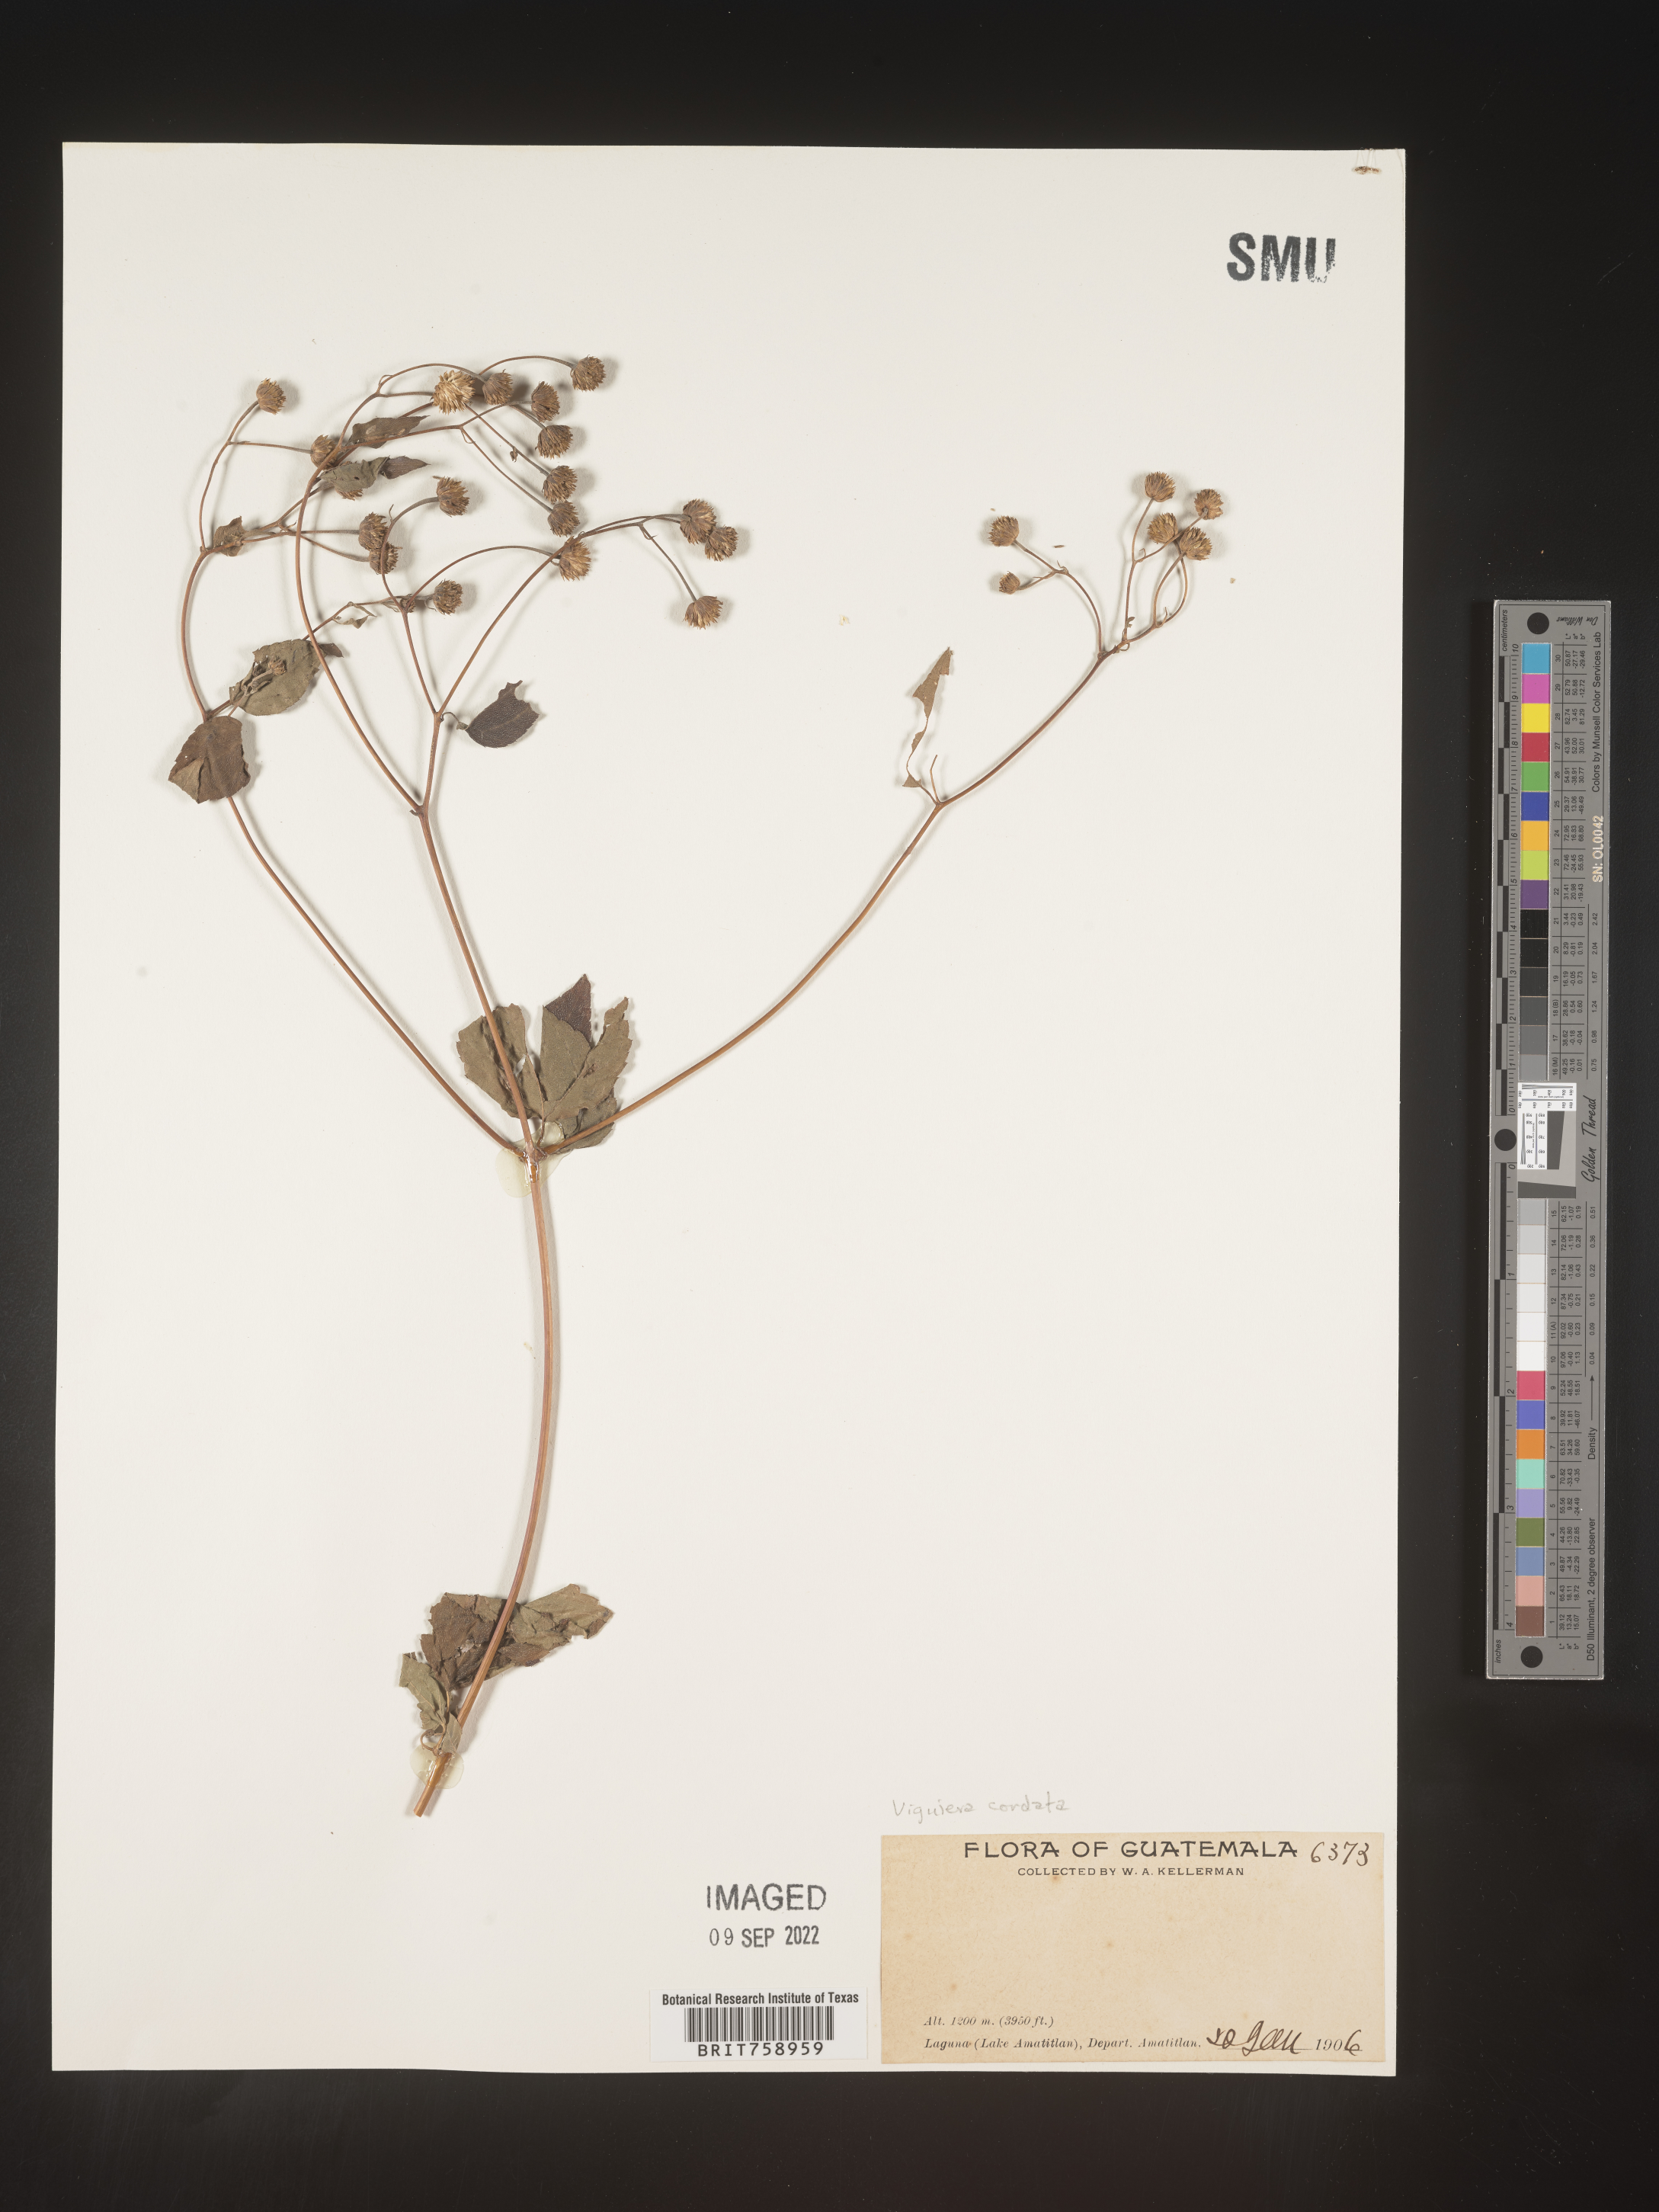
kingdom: Plantae
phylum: Tracheophyta
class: Magnoliopsida
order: Asterales
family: Asteraceae
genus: Viguiera
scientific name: Viguiera
